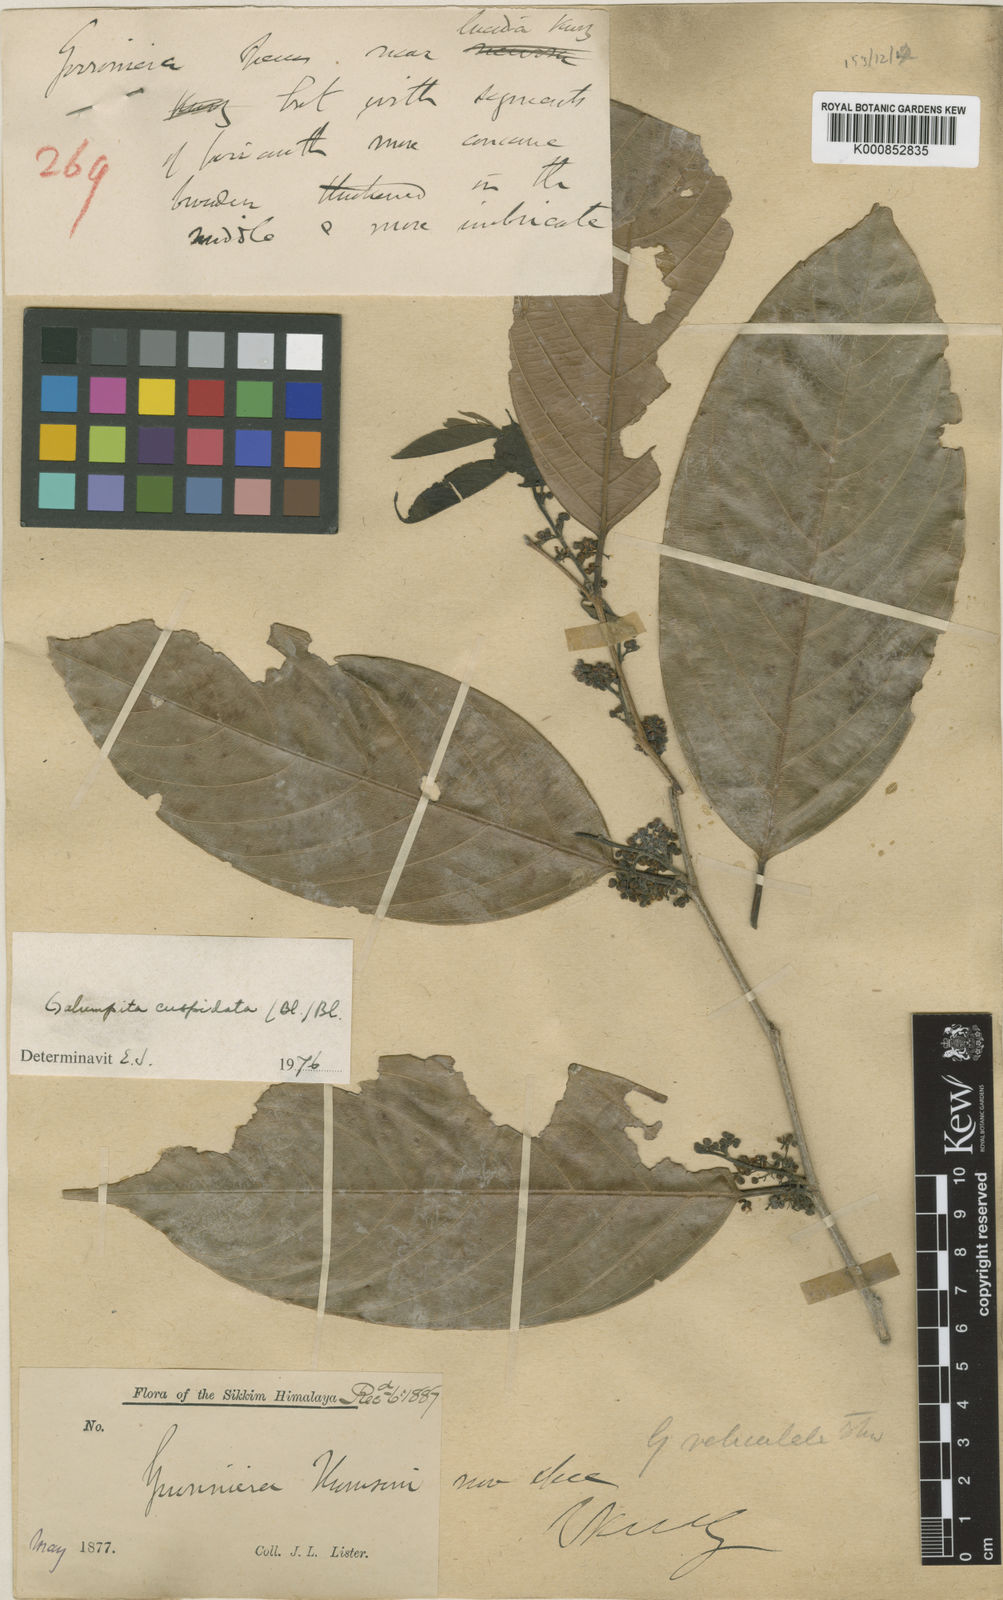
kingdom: Plantae
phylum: Tracheophyta
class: Magnoliopsida
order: Rosales
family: Cannabaceae
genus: Aphananthe
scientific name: Aphananthe cuspidata
